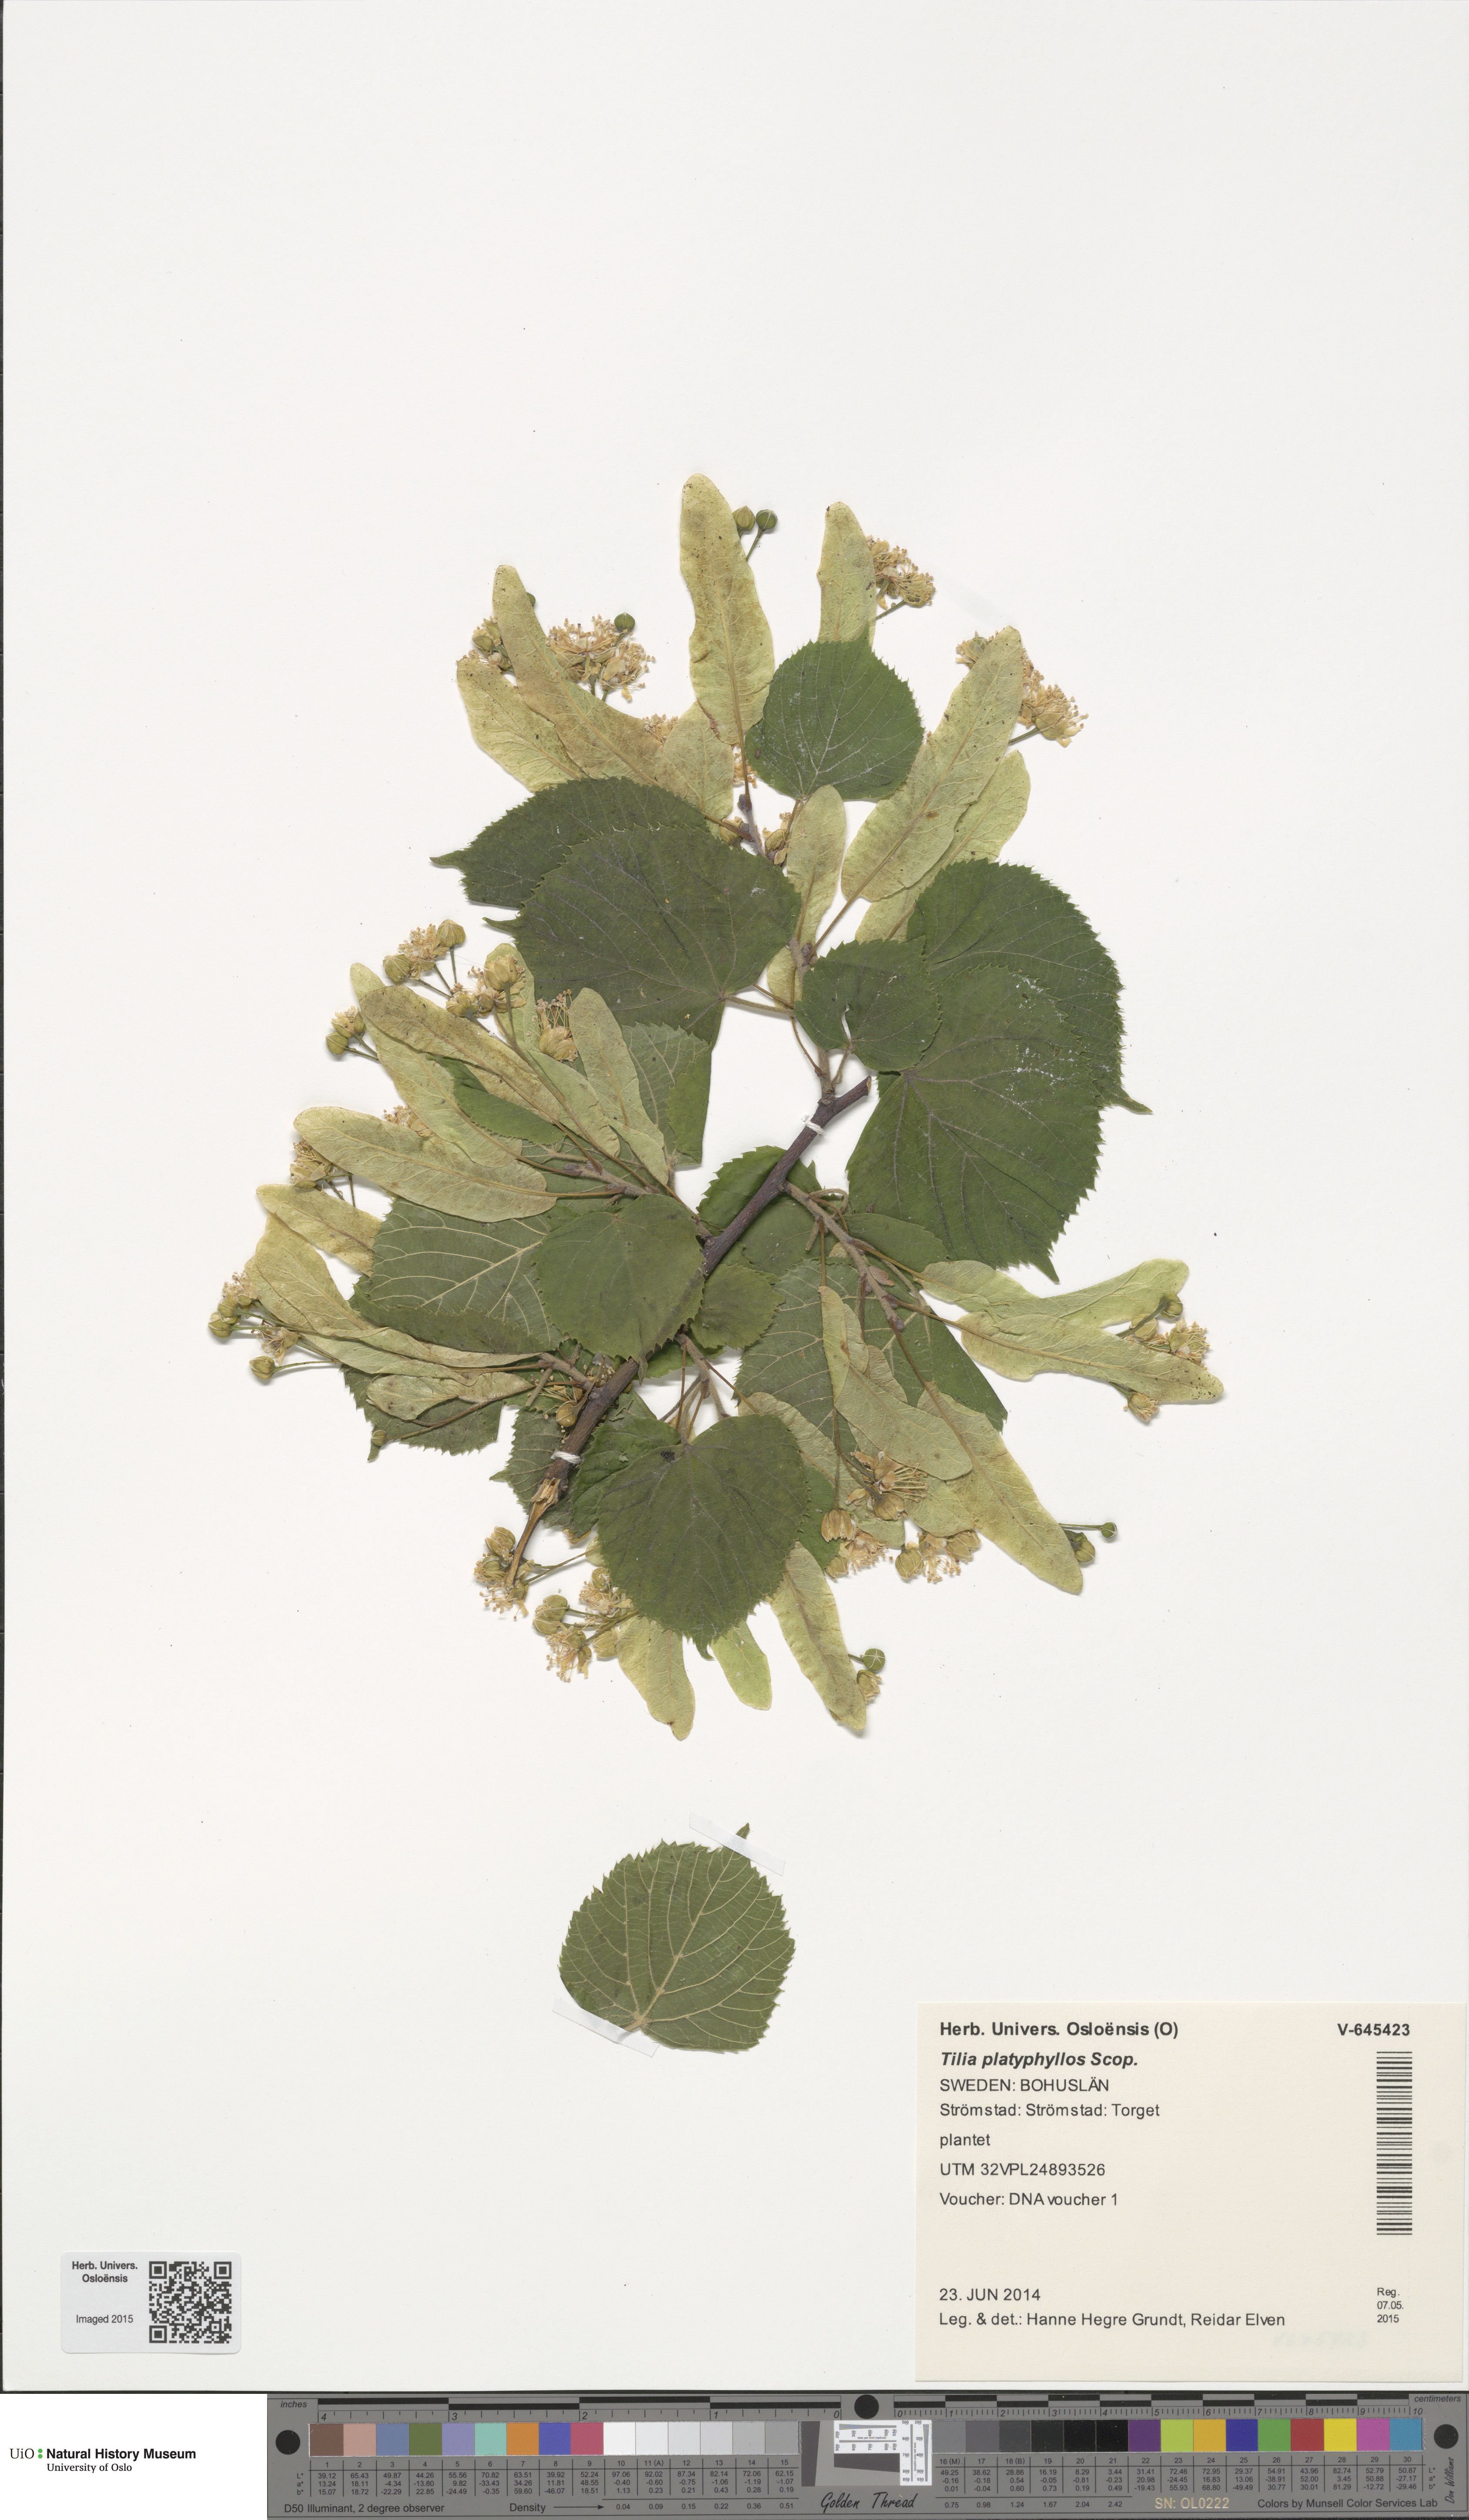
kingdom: Plantae
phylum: Tracheophyta
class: Magnoliopsida
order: Malvales
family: Malvaceae
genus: Tilia
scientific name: Tilia platyphyllos
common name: Large-leaved lime
